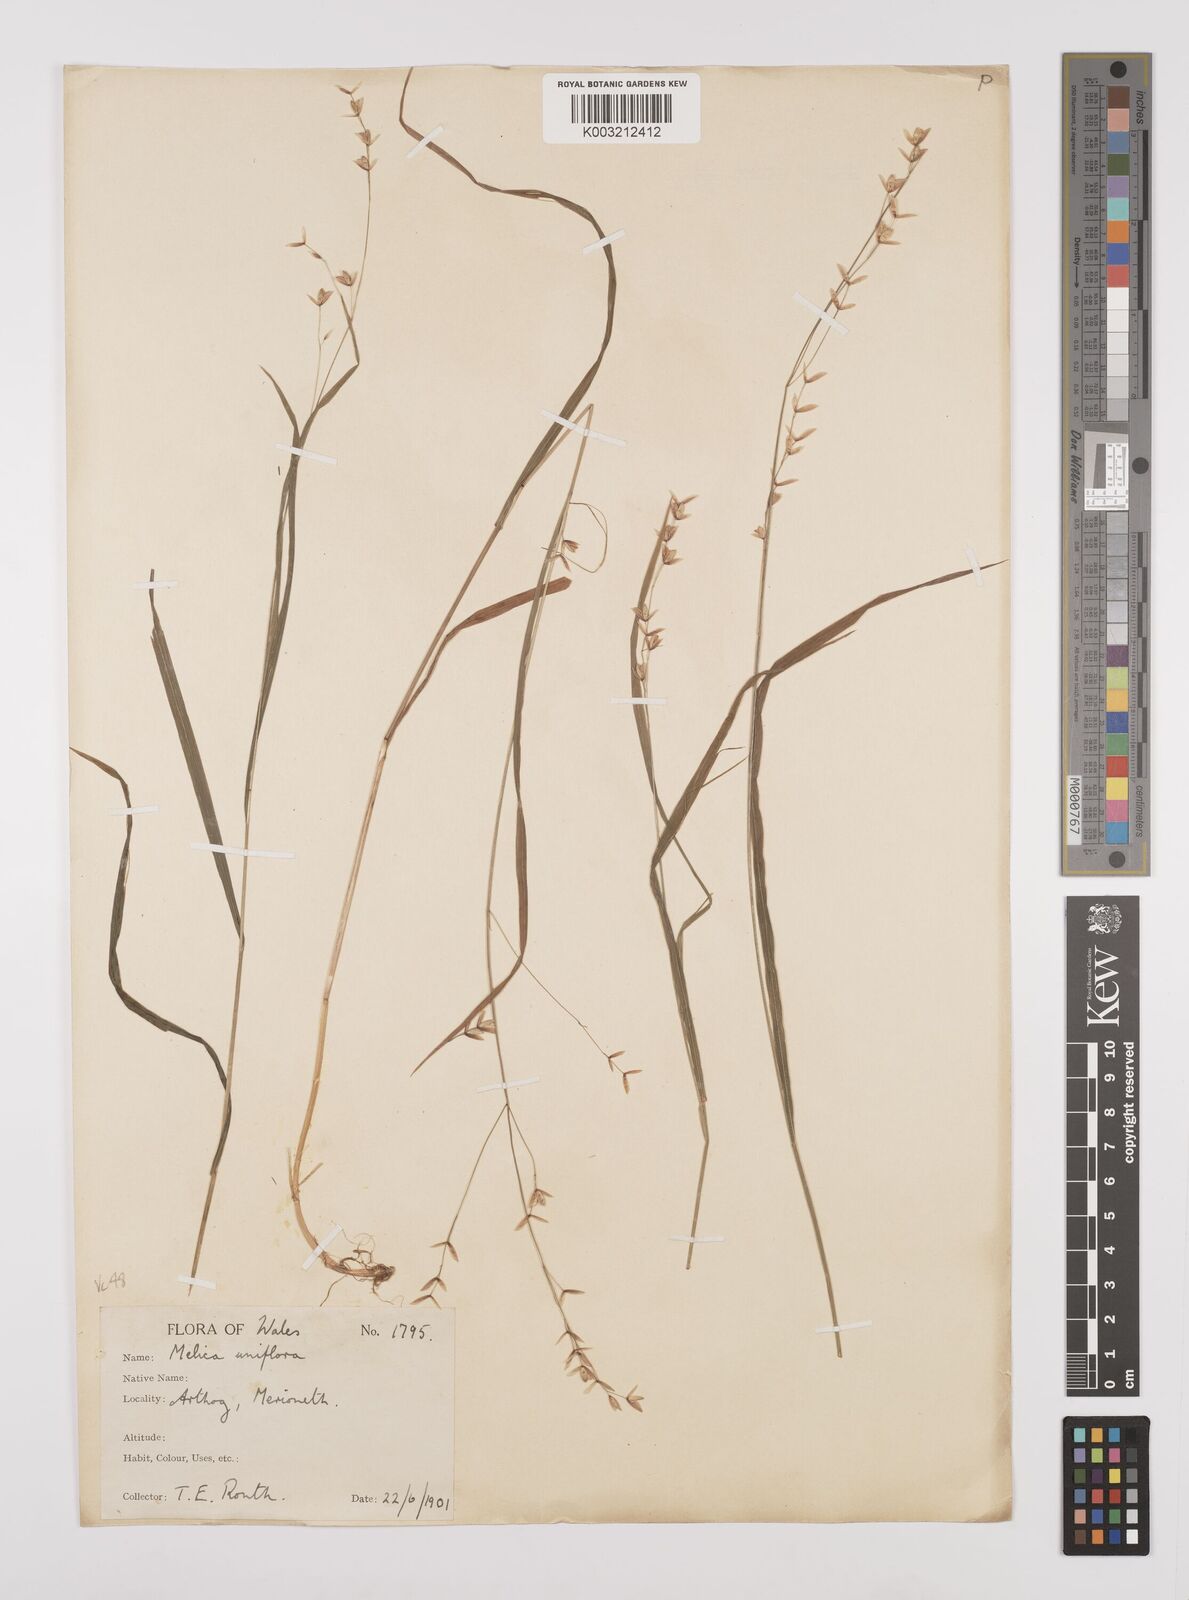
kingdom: Plantae
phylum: Tracheophyta
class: Liliopsida
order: Poales
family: Poaceae
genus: Melica
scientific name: Melica uniflora
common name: Wood melick
